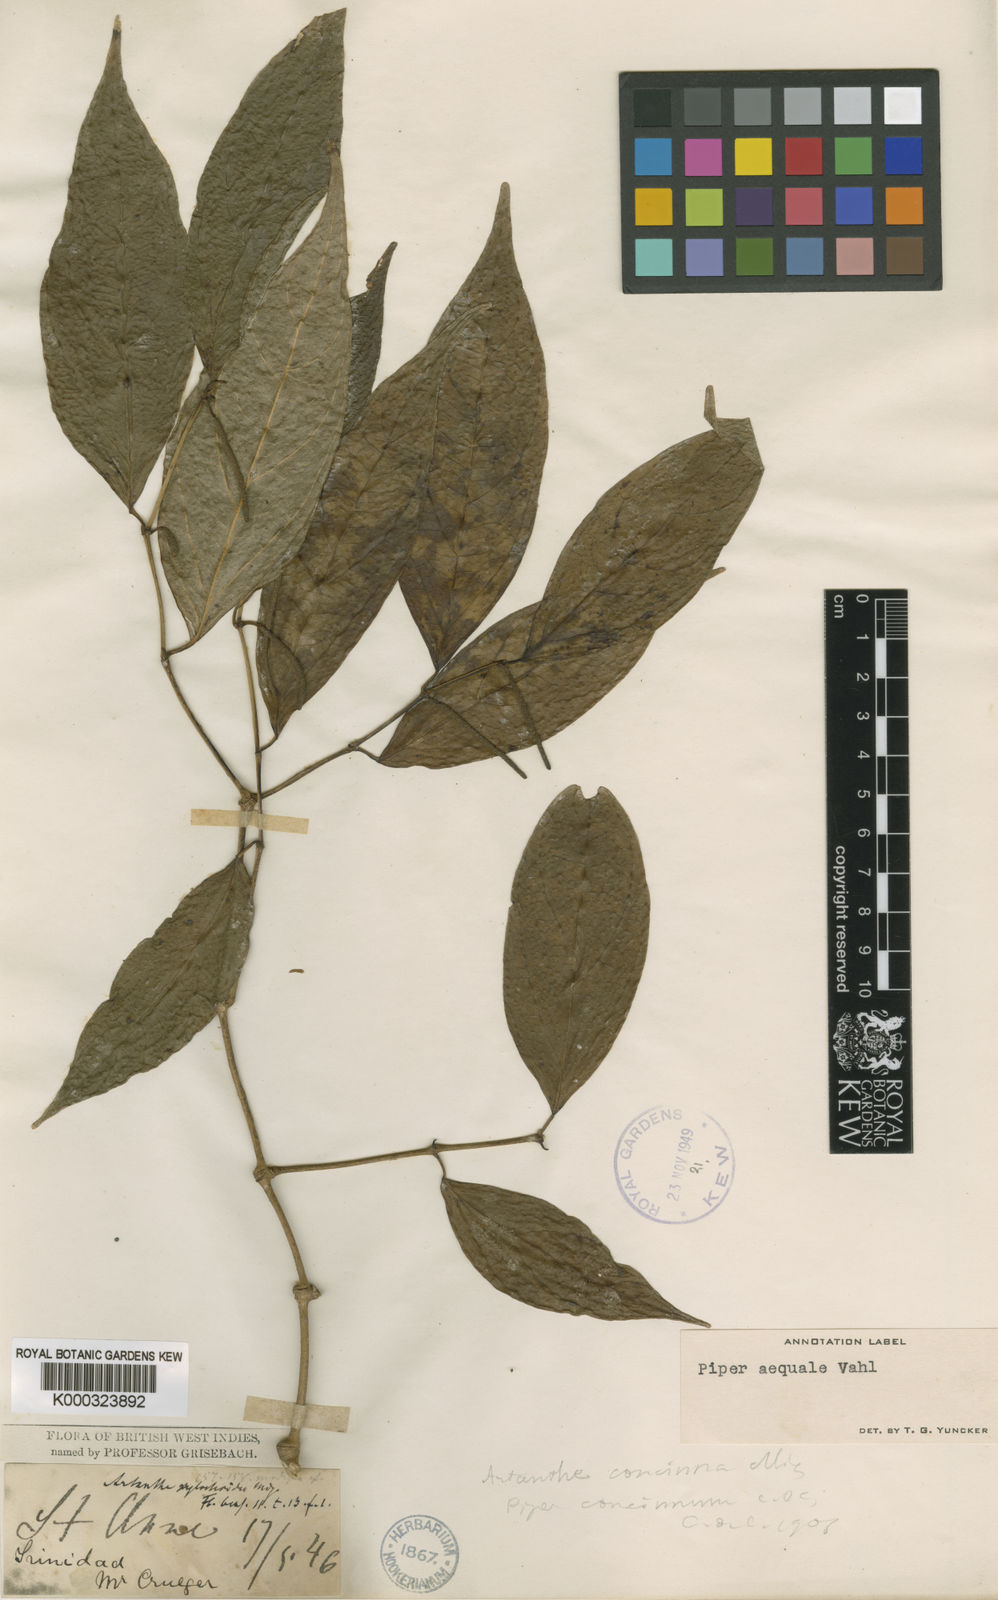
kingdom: Plantae
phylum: Tracheophyta
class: Magnoliopsida
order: Piperales
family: Piperaceae
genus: Piper
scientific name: Piper aequale
